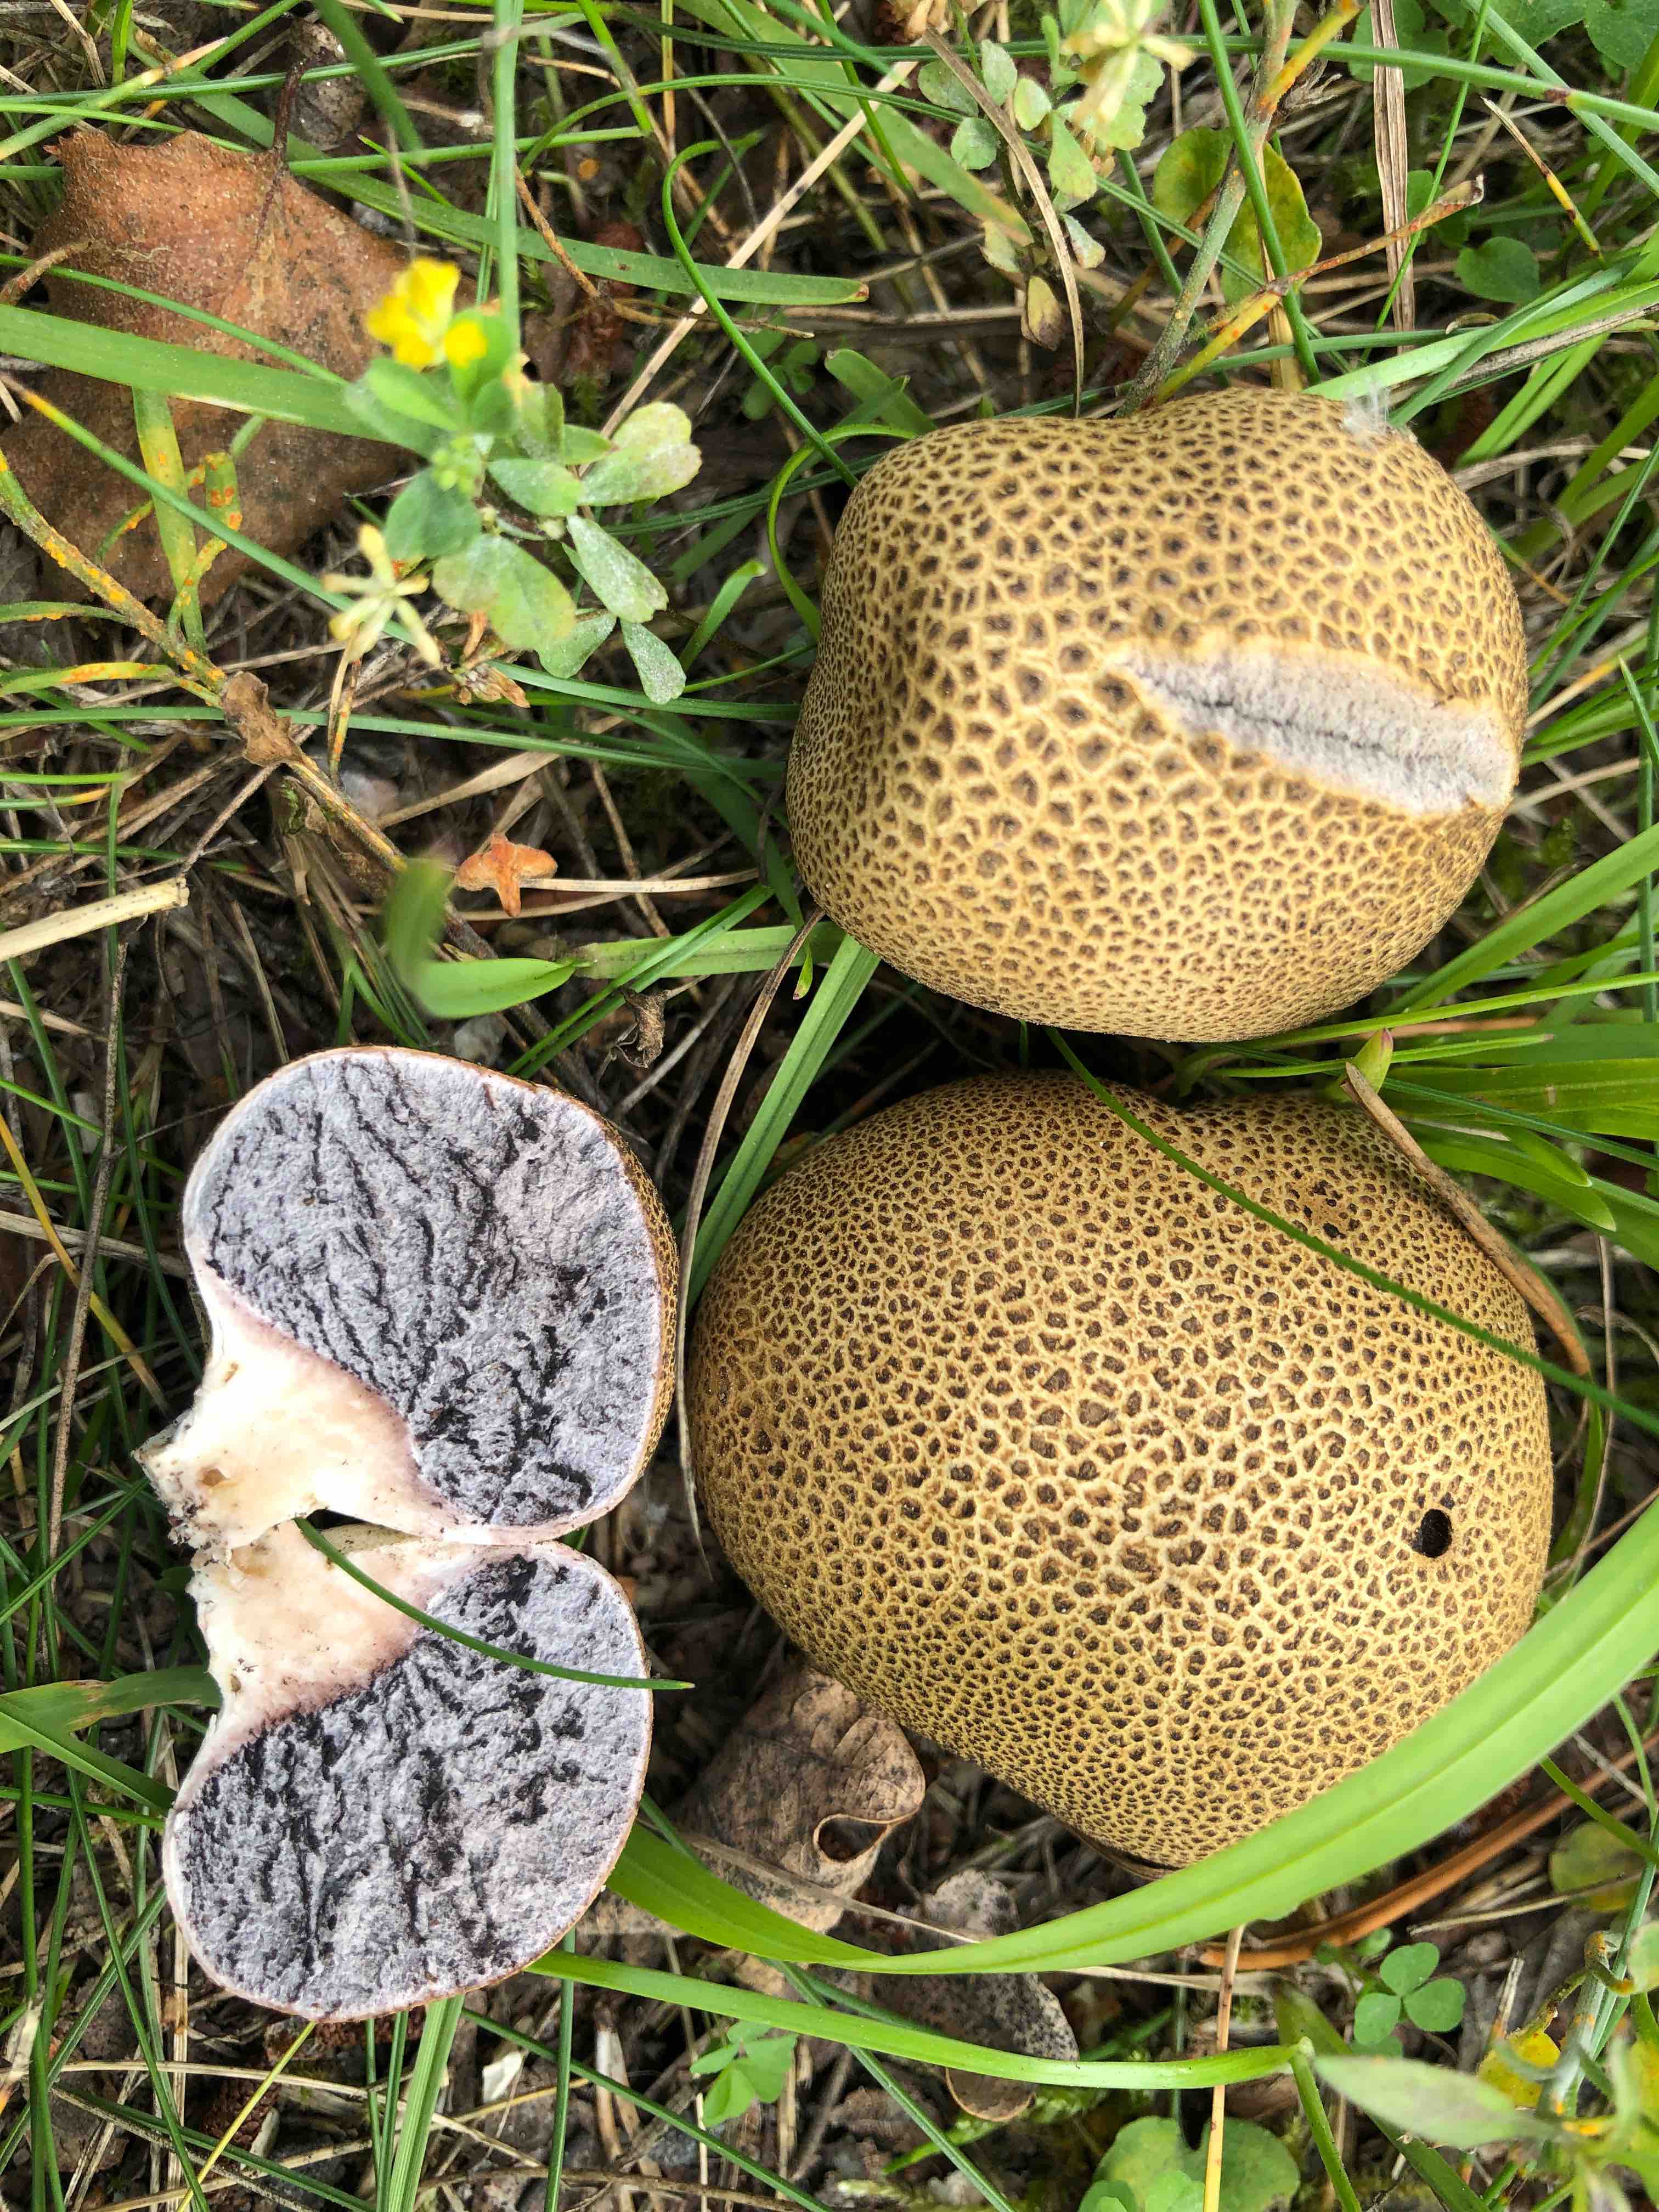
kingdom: Fungi
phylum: Basidiomycota
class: Agaricomycetes
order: Boletales
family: Sclerodermataceae
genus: Scleroderma
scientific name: Scleroderma
